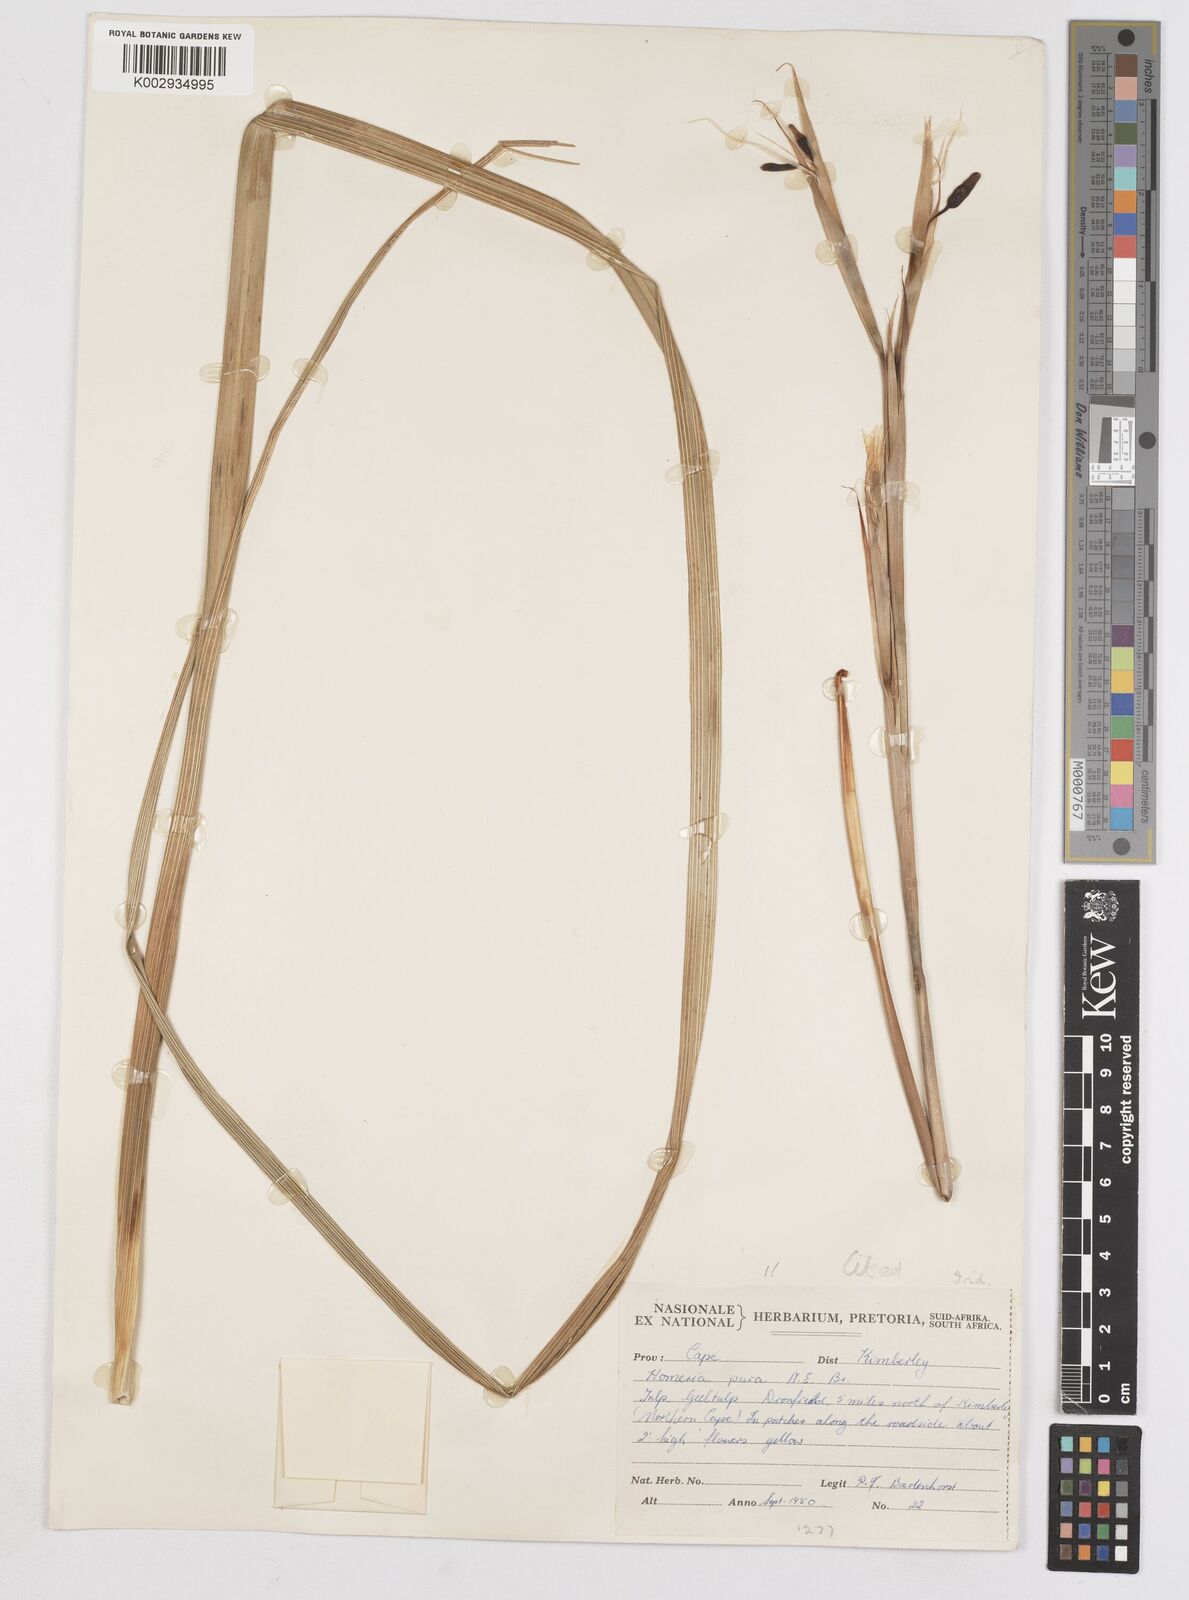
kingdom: Plantae
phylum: Tracheophyta
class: Liliopsida
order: Asparagales
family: Iridaceae
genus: Moraea
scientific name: Moraea pallida
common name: Yellow tulp
